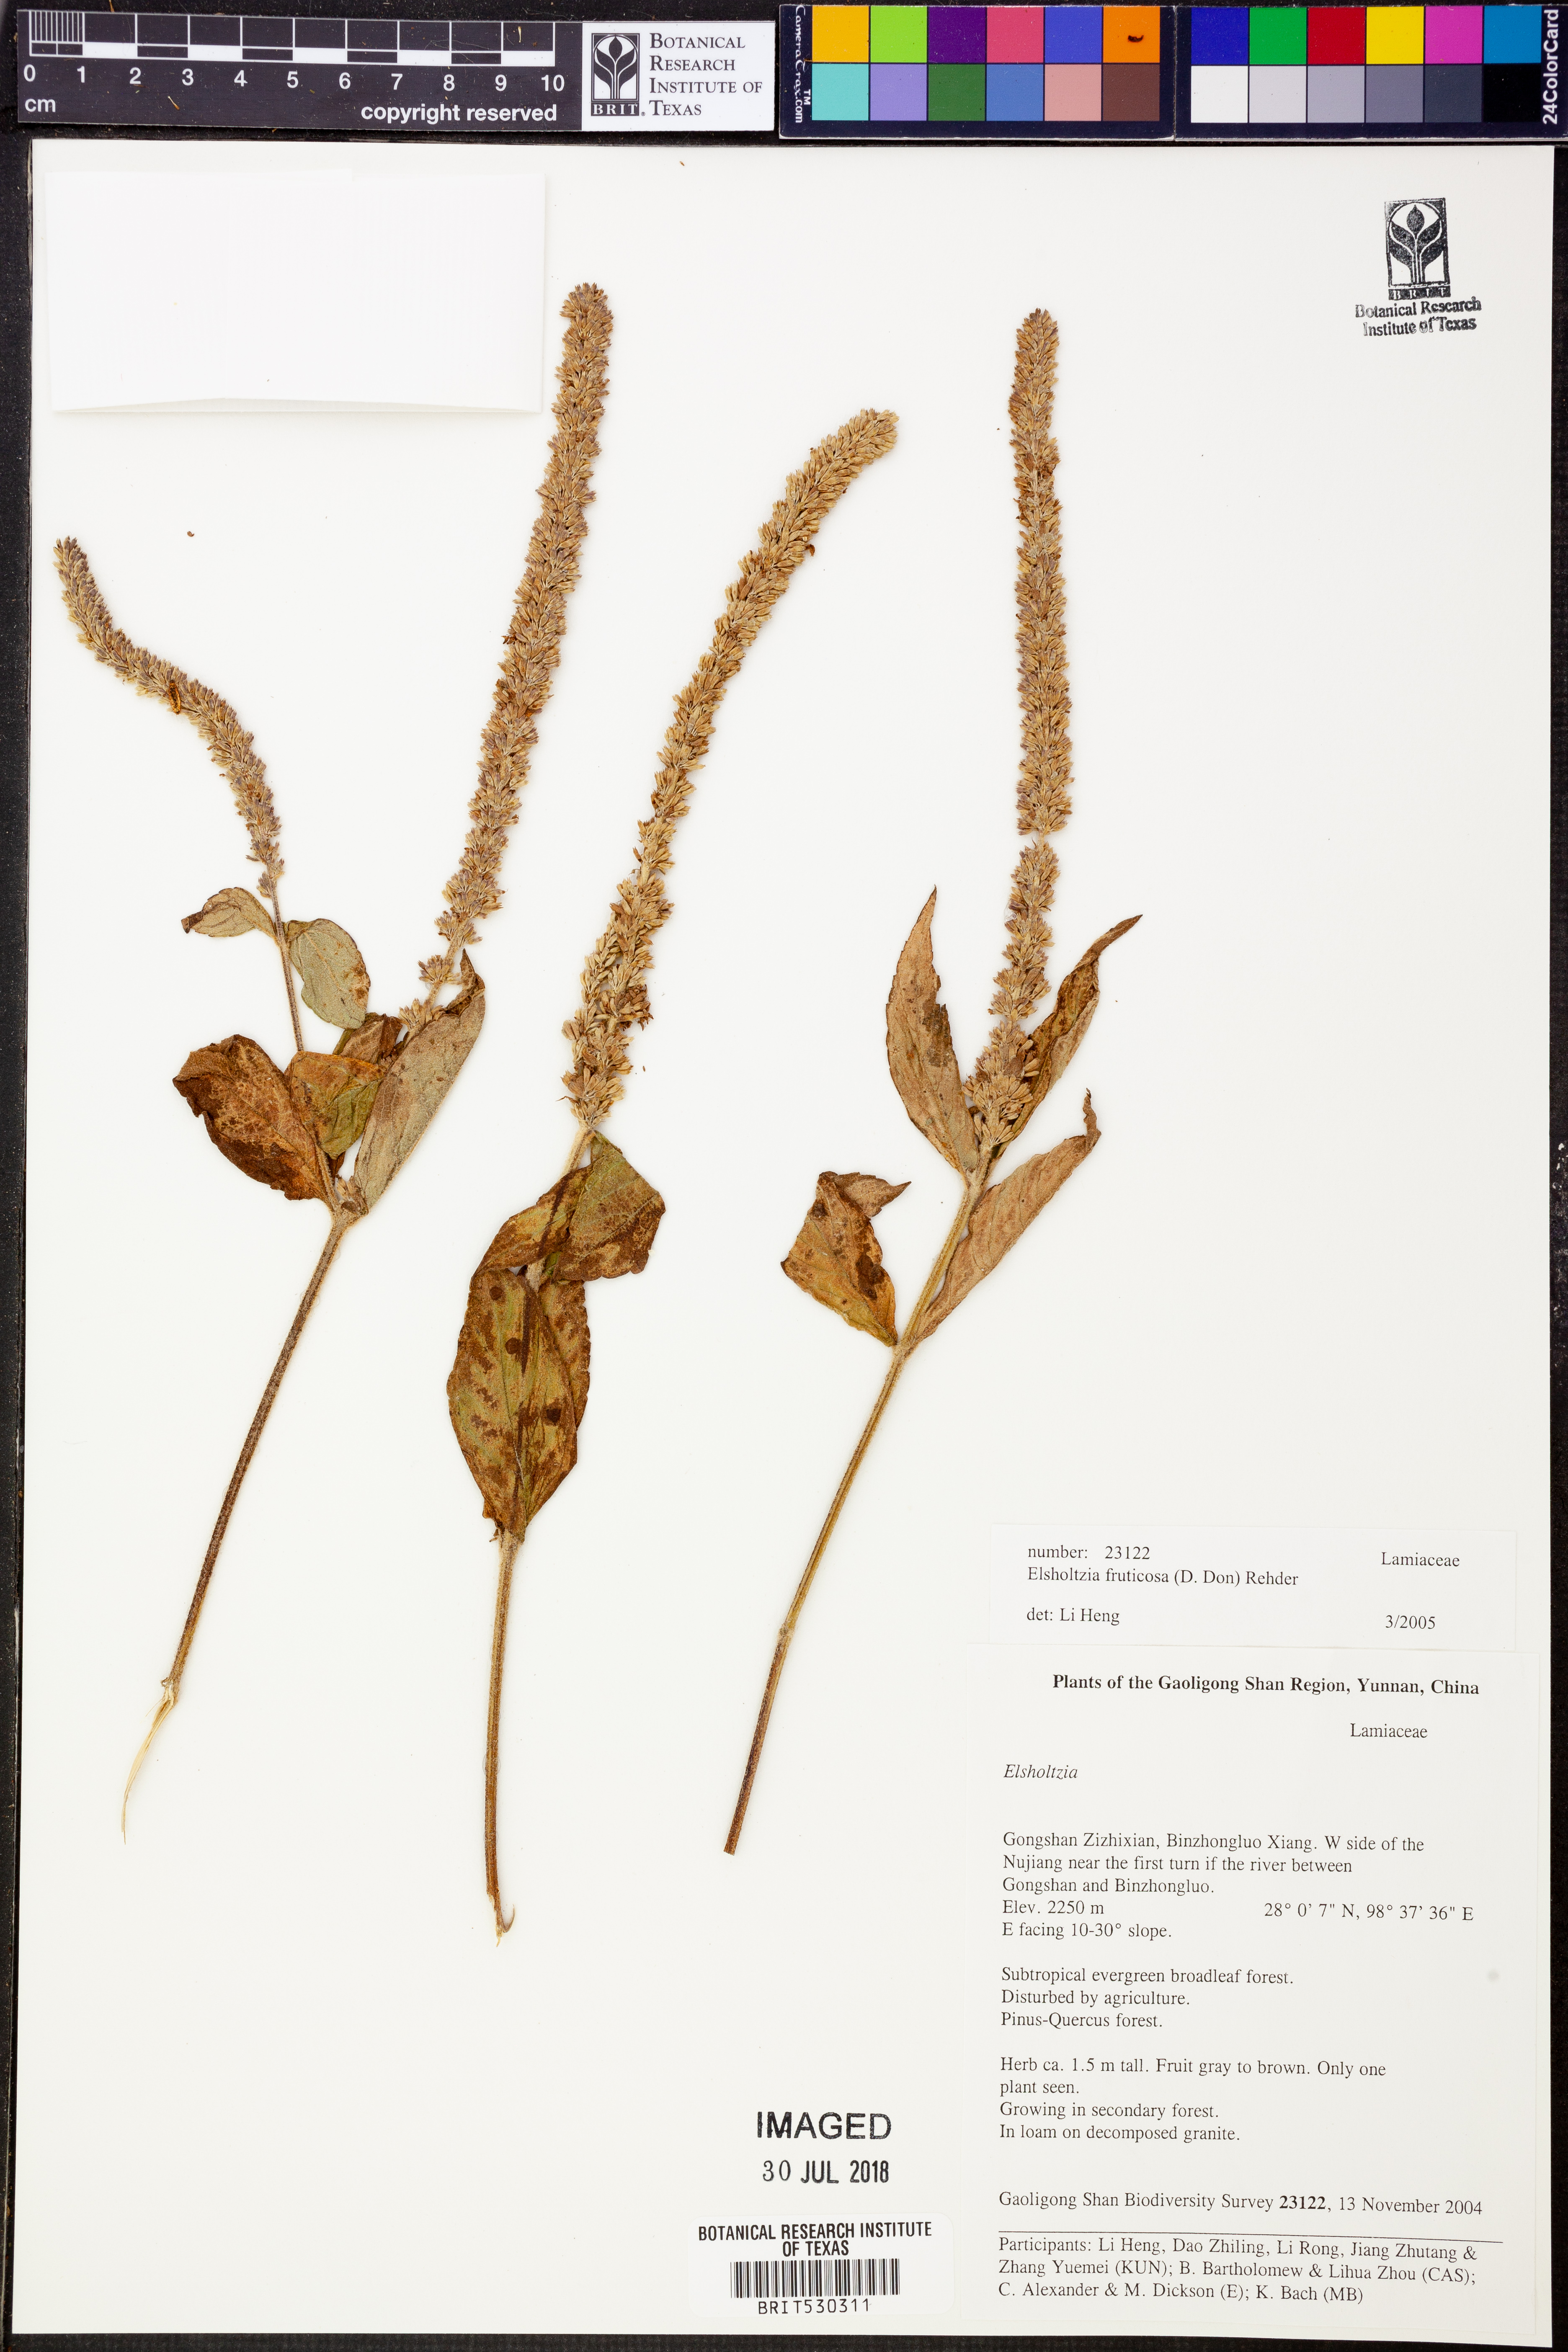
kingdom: Plantae
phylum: Tracheophyta
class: Magnoliopsida
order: Lamiales
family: Lamiaceae
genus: Elsholtzia
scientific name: Elsholtzia fruticosa
